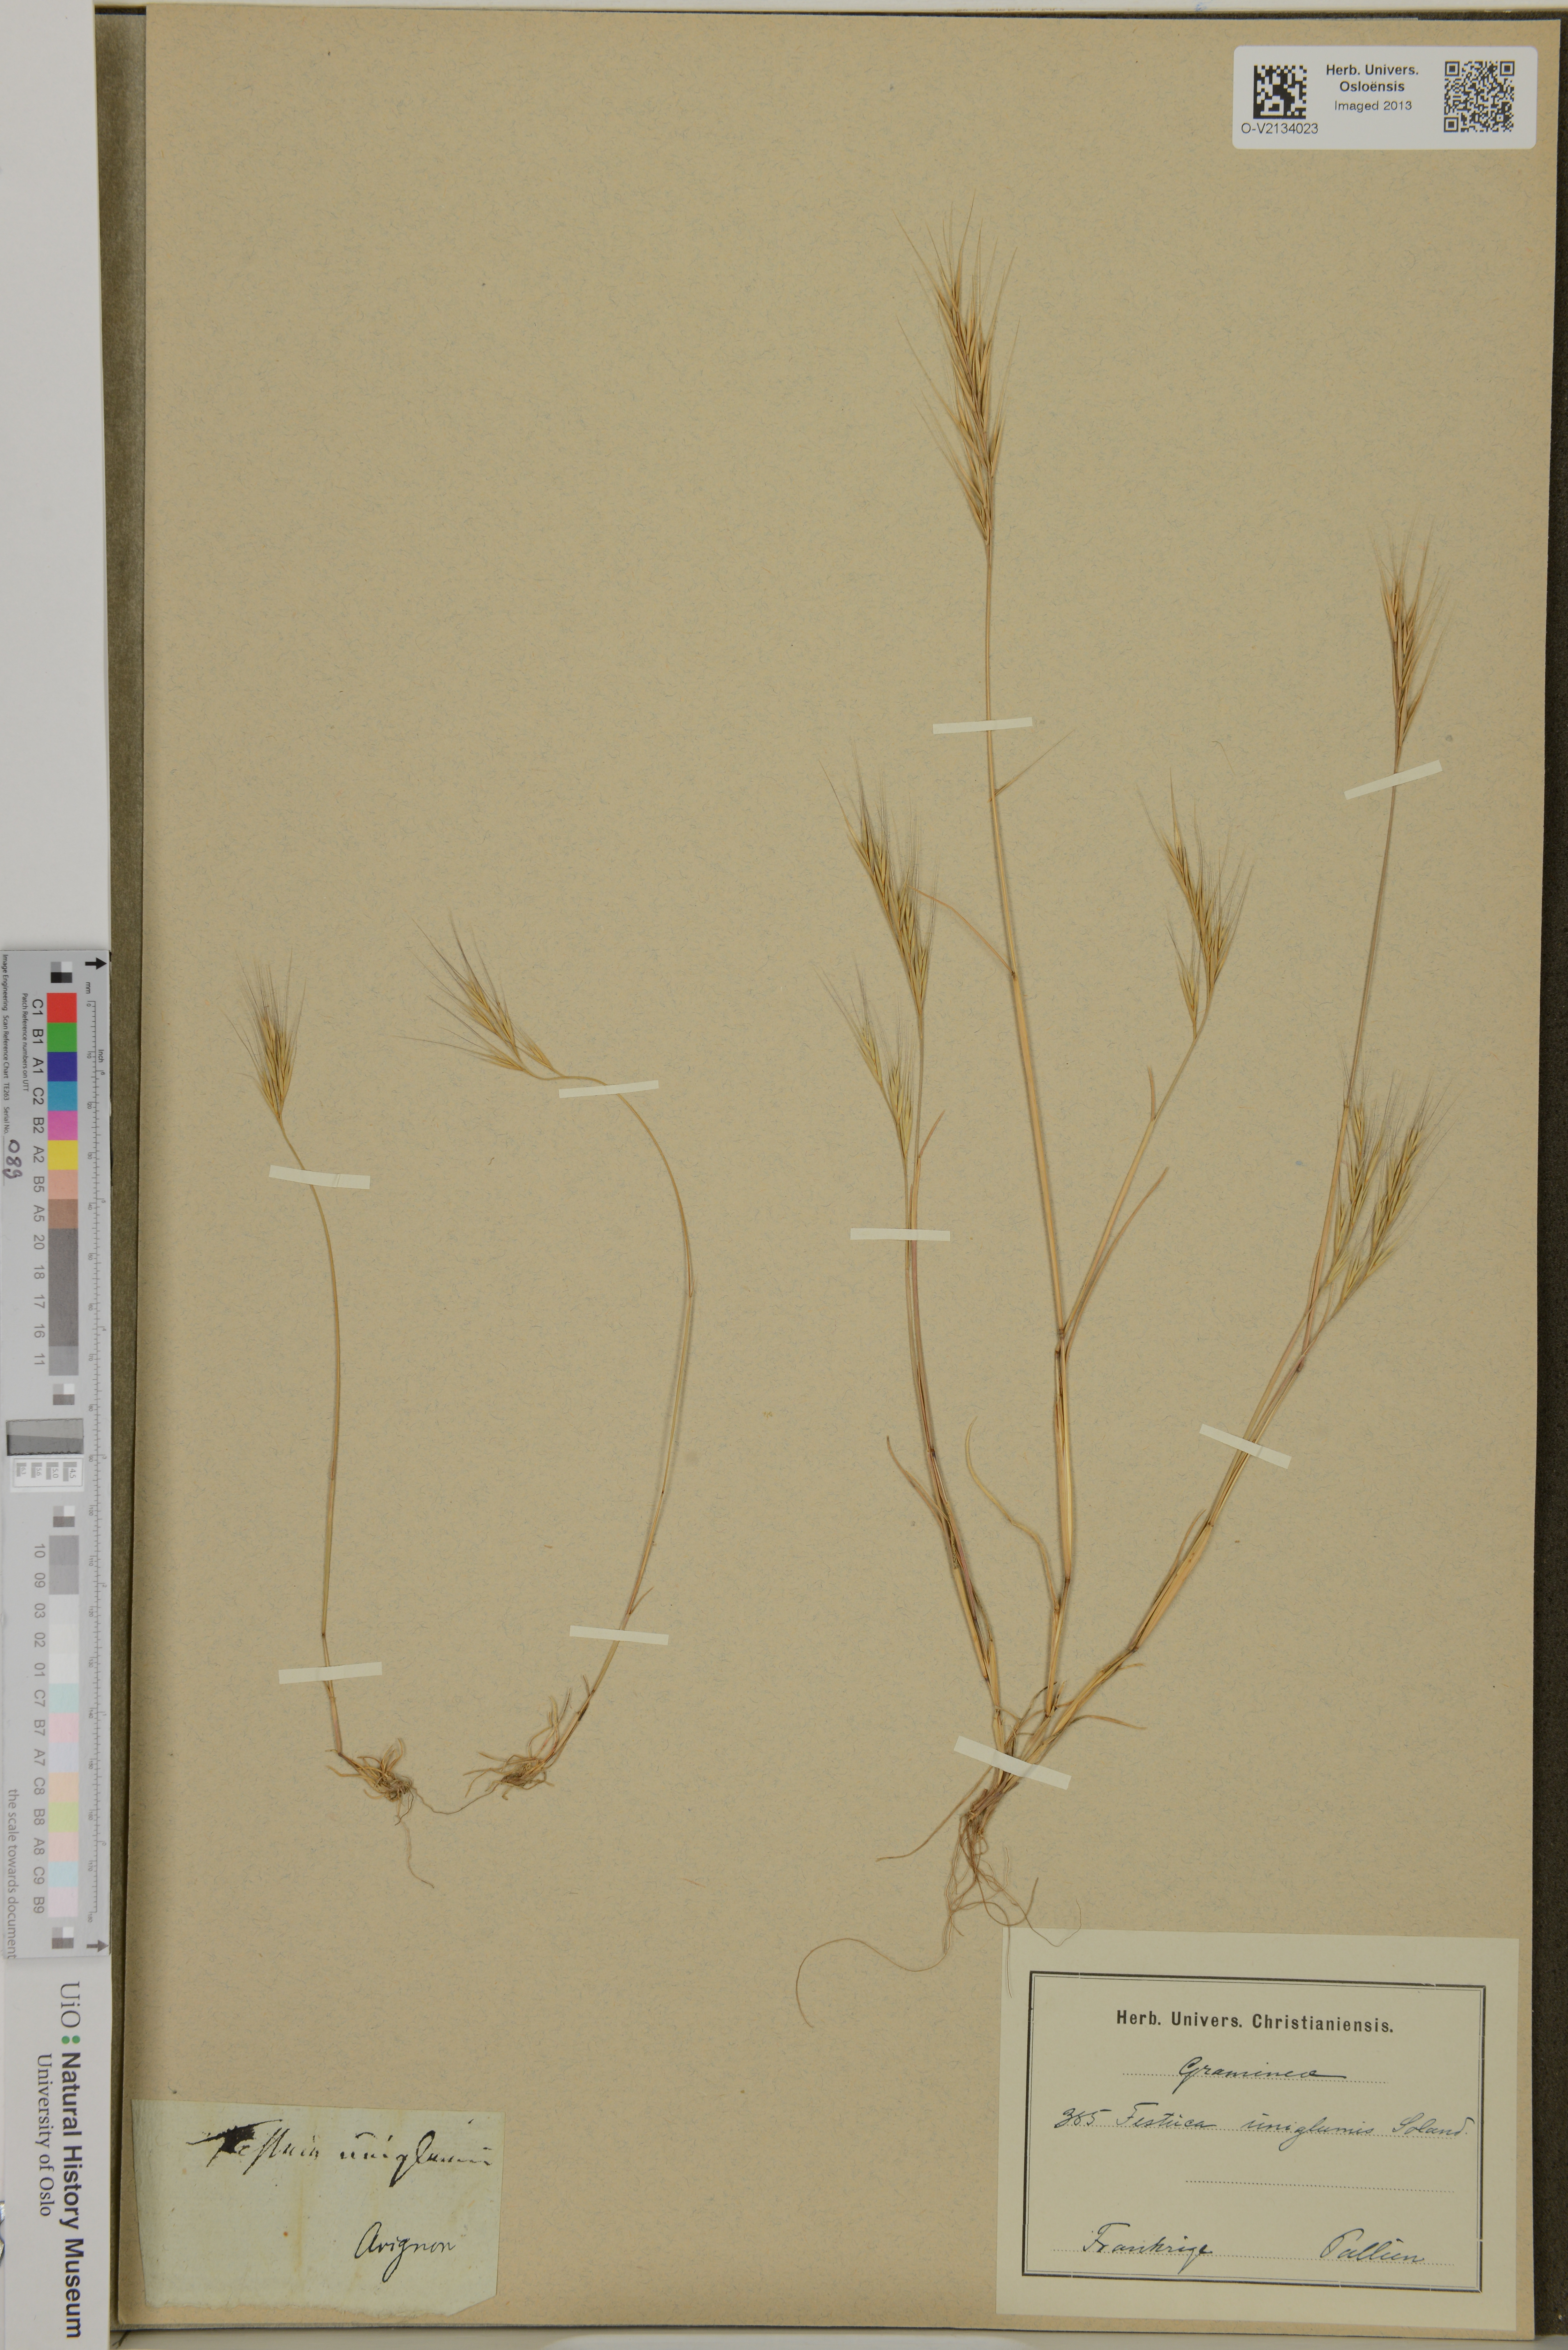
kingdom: Plantae
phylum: Tracheophyta
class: Liliopsida
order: Poales
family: Poaceae
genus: Festuca
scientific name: Festuca
